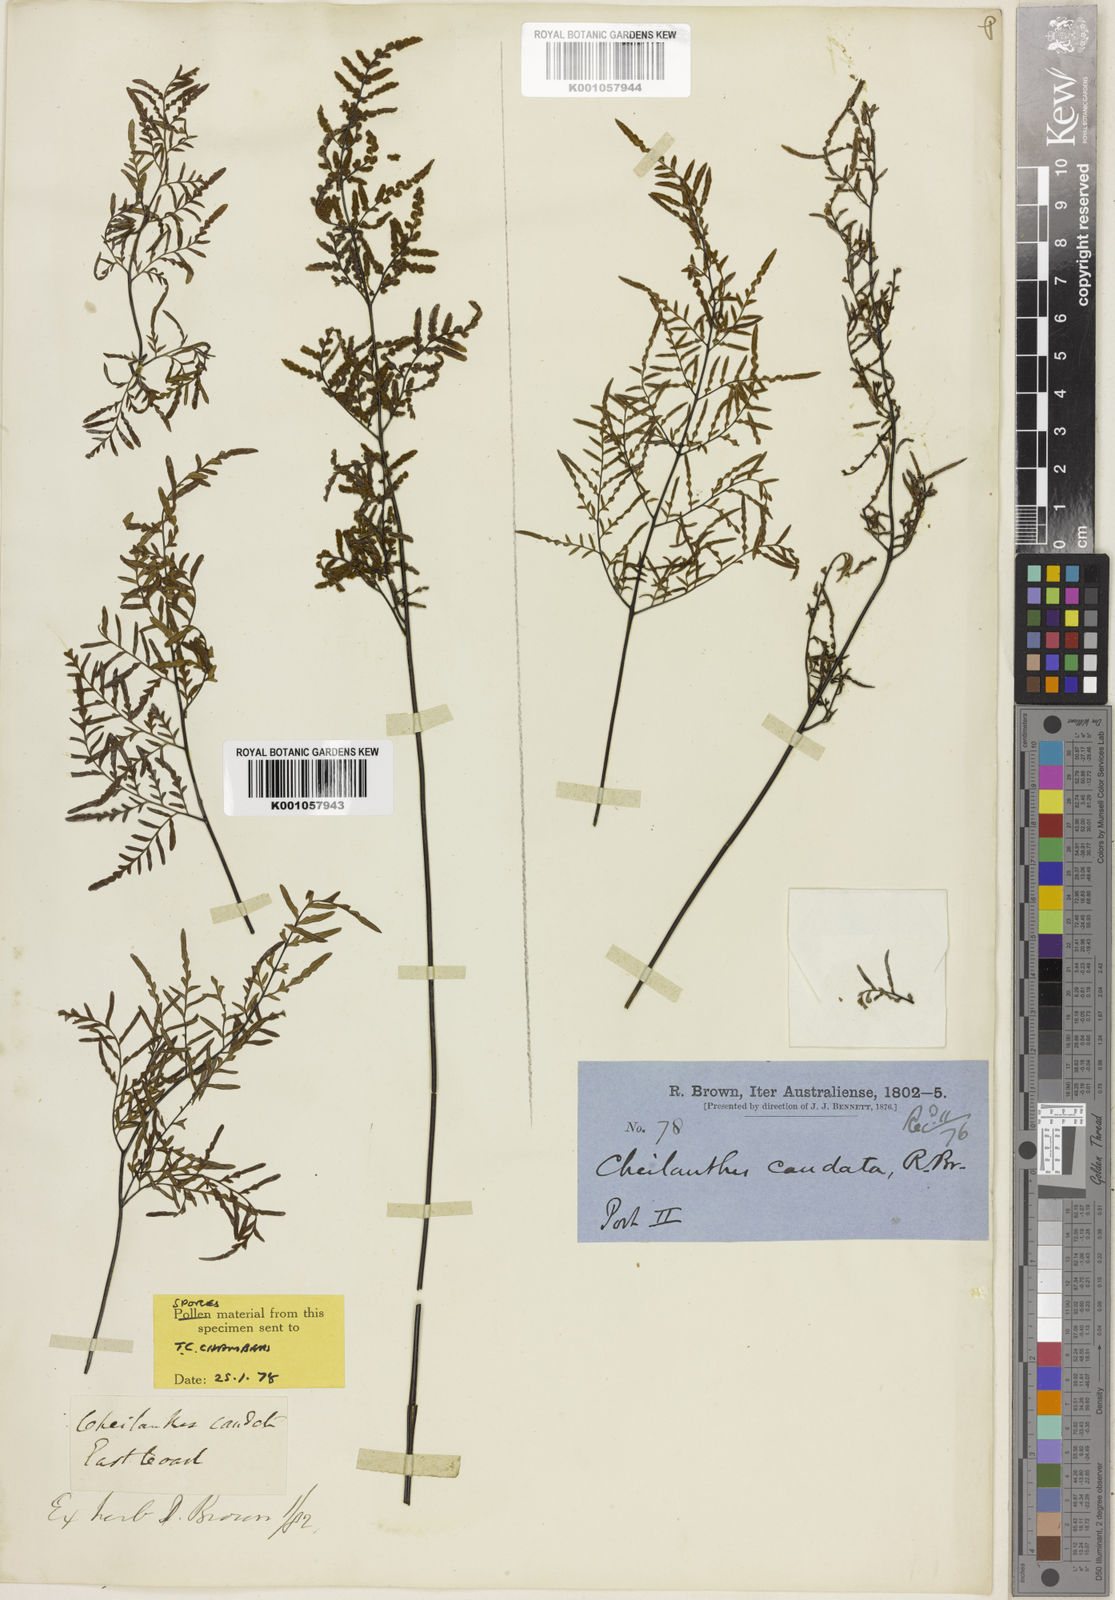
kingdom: Plantae
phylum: Tracheophyta
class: Polypodiopsida
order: Polypodiales
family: Pteridaceae
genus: Cheilanthes
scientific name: Cheilanthes caudata
